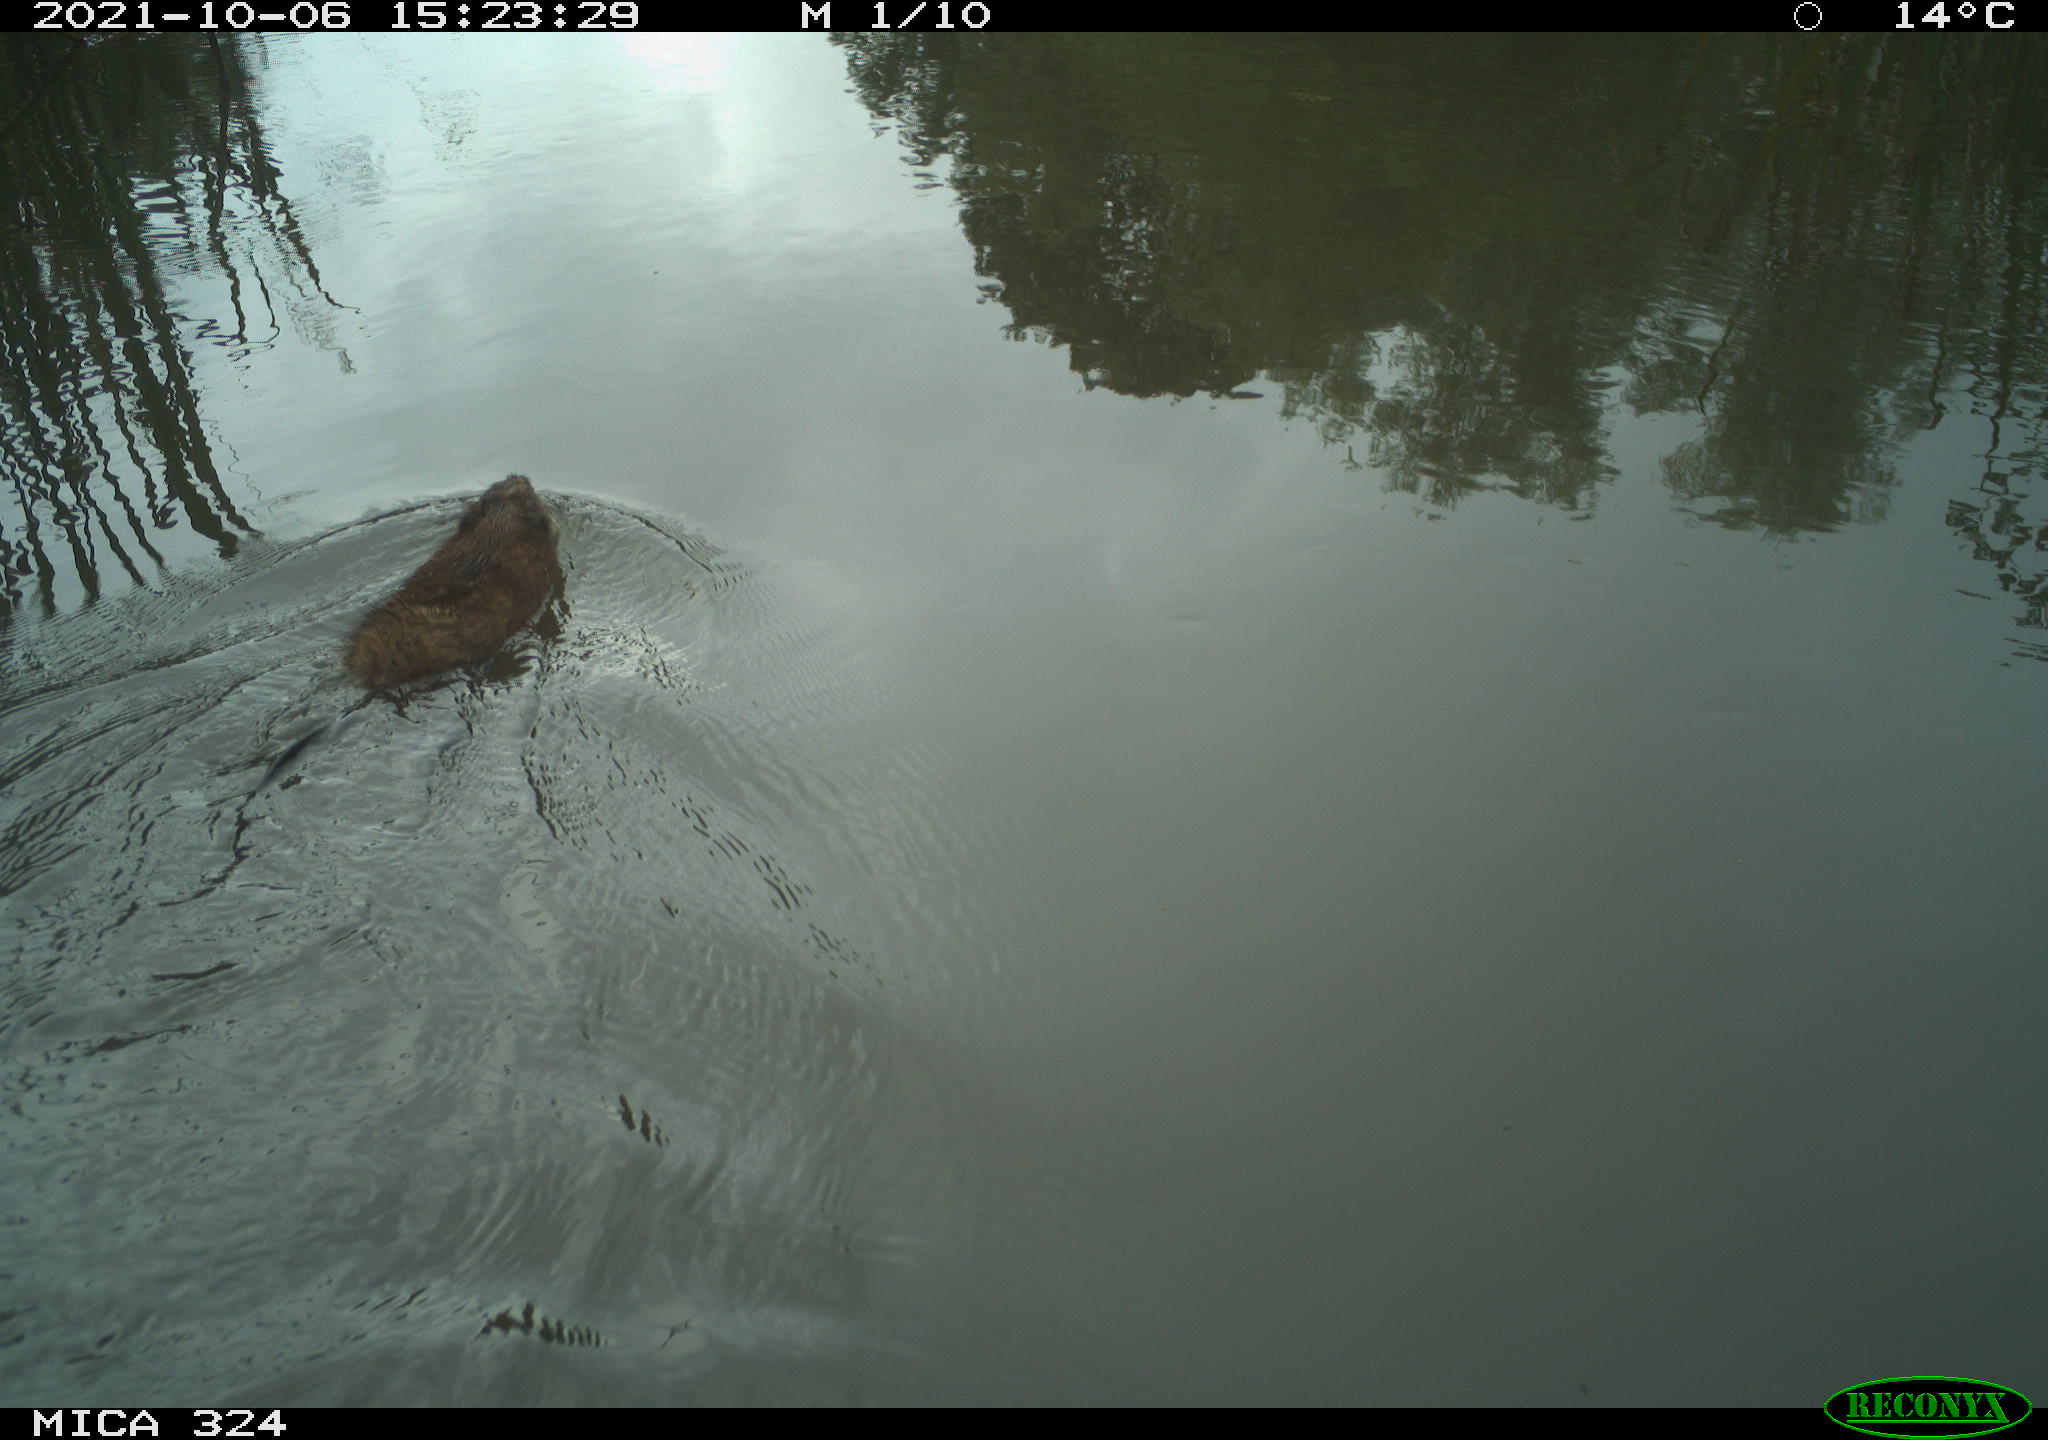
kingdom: Animalia
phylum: Chordata
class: Mammalia
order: Rodentia
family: Cricetidae
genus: Ondatra
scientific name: Ondatra zibethicus
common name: Muskrat
